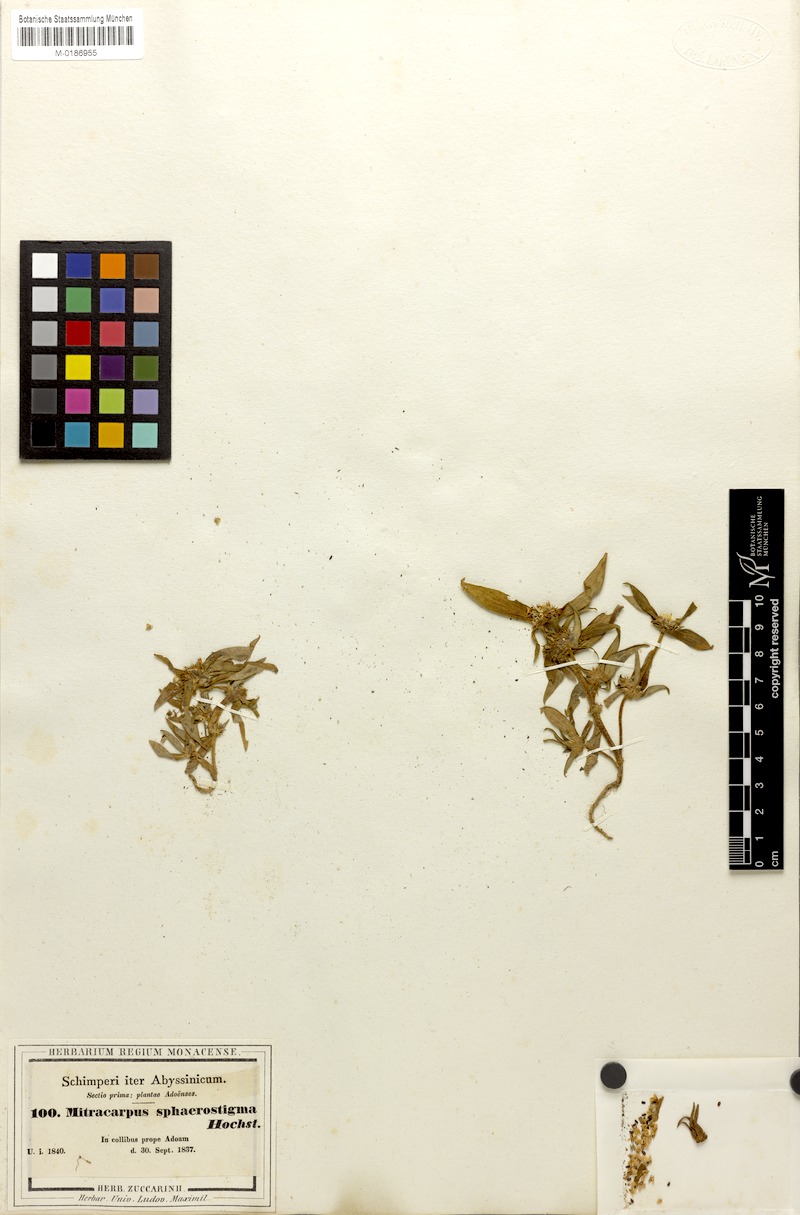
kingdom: Plantae
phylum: Tracheophyta
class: Magnoliopsida
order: Gentianales
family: Rubiaceae
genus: Spermacoce
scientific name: Spermacoce sphaerostigma
